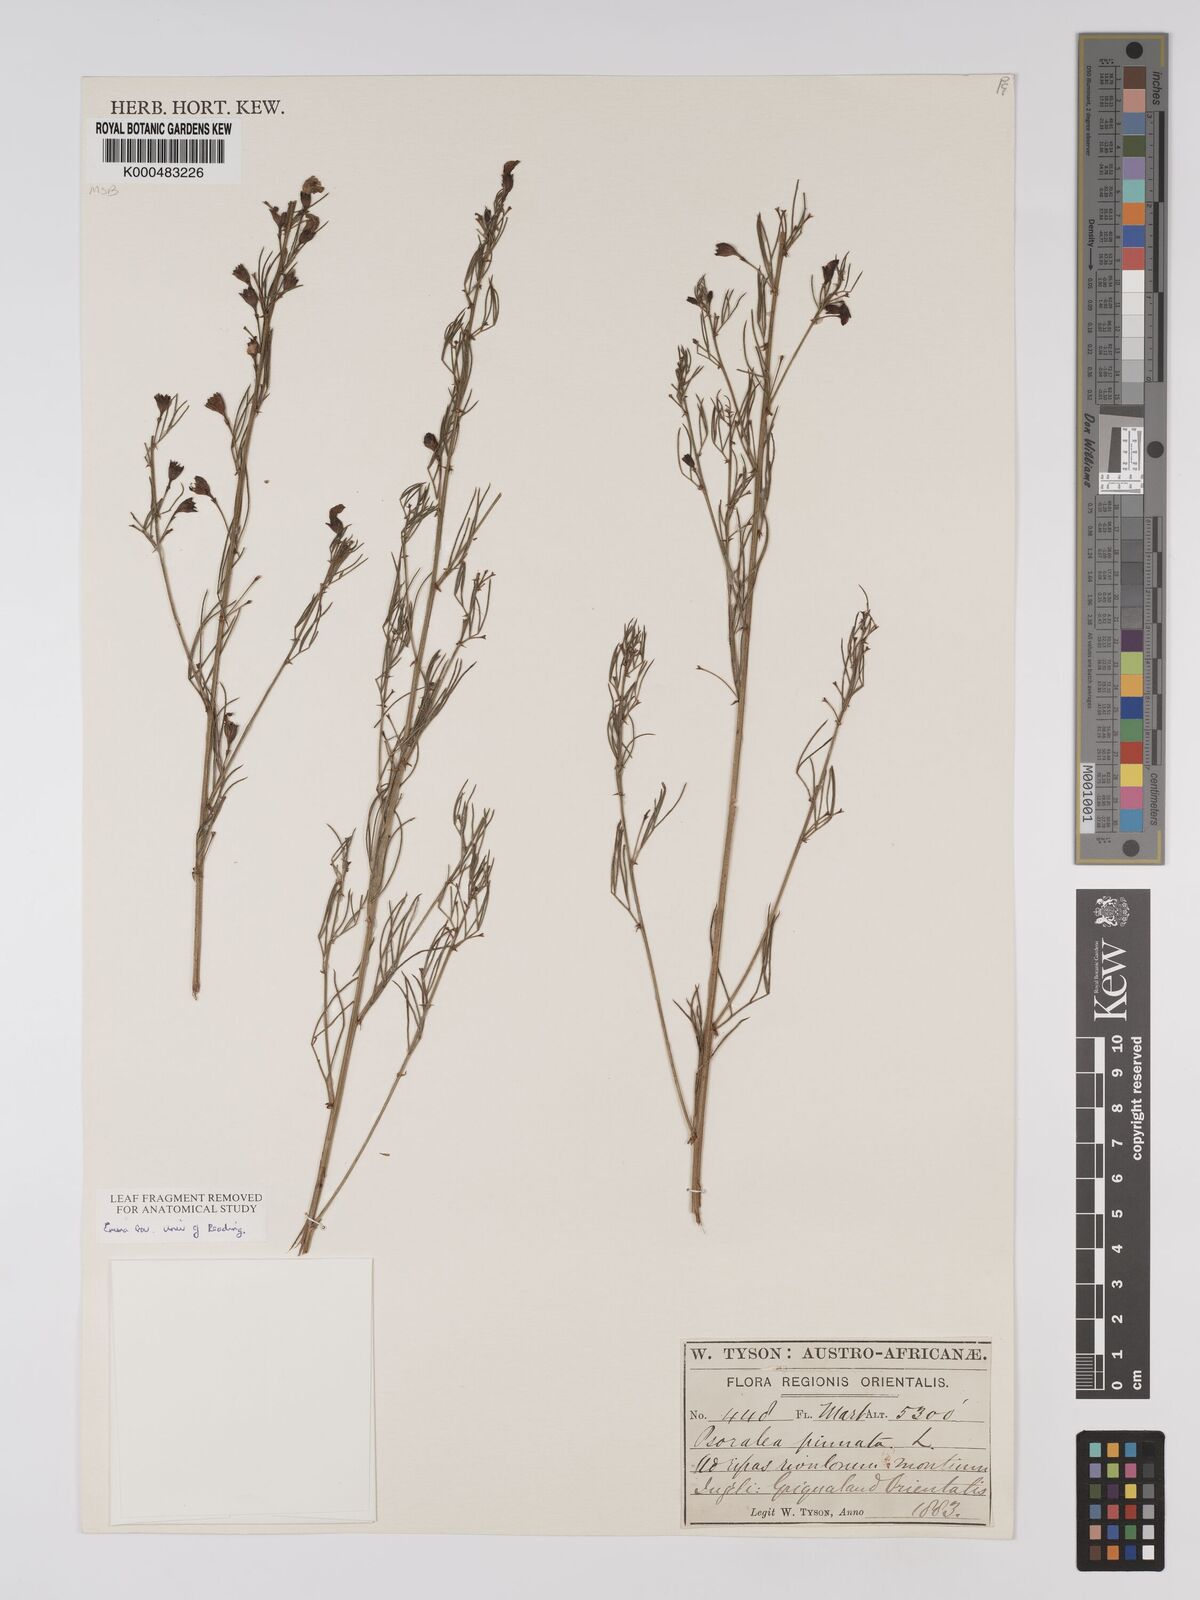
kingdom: Plantae
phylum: Tracheophyta
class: Magnoliopsida
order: Fabales
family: Fabaceae
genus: Psoralea
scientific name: Psoralea abbottii
